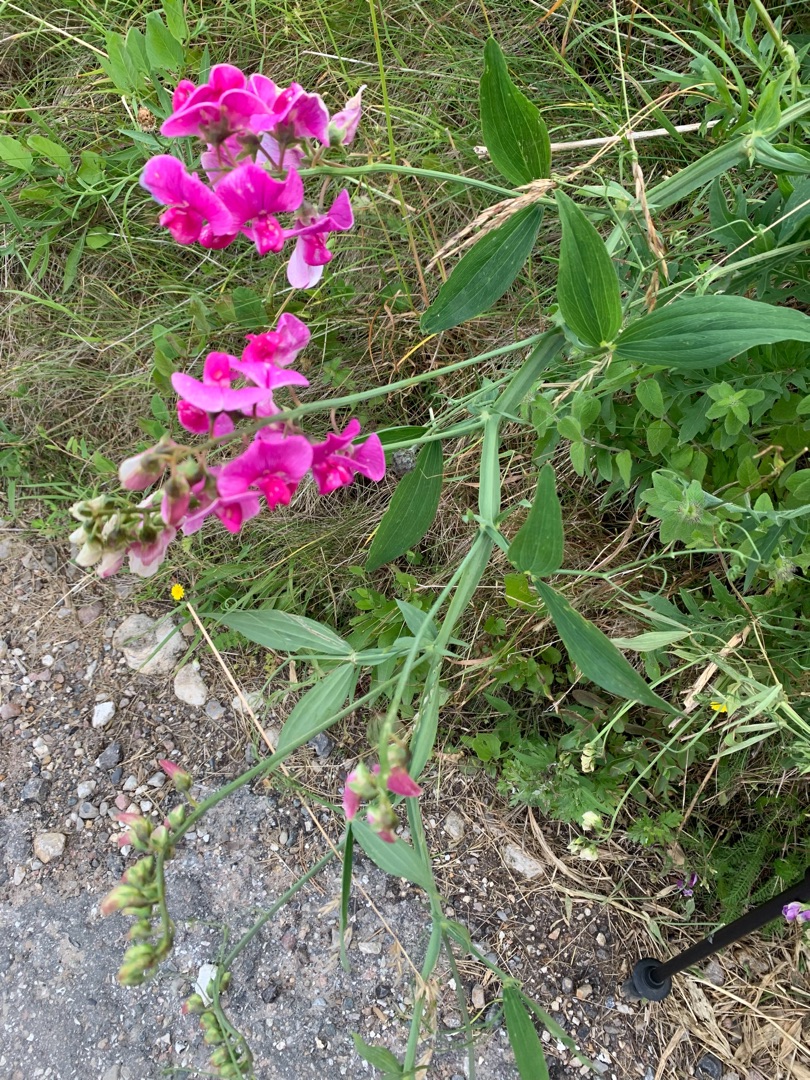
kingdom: Plantae
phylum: Tracheophyta
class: Magnoliopsida
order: Fabales
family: Fabaceae
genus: Lathyrus
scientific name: Lathyrus latifolius
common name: Flerårig ærteblomst
